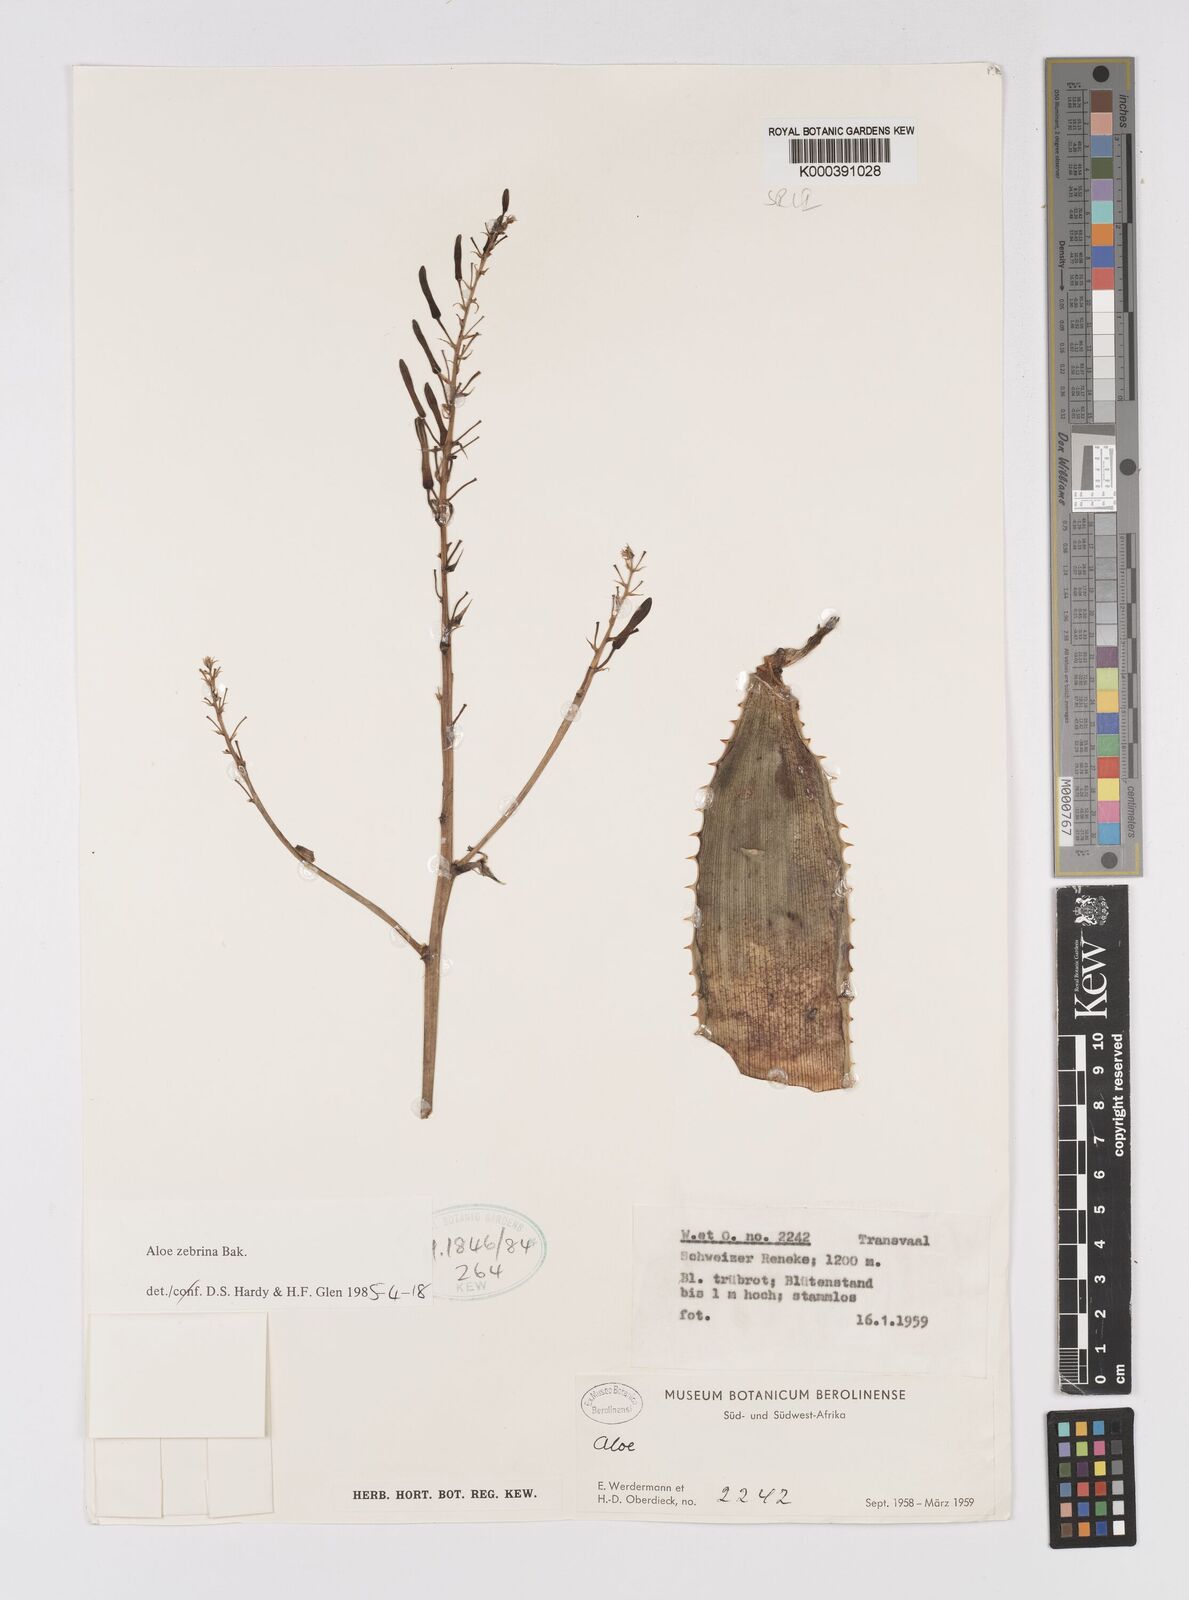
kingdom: Plantae
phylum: Tracheophyta
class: Liliopsida
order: Asparagales
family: Asphodelaceae
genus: Aloe
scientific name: Aloe zebrina
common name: Zebra-leaf aloe
